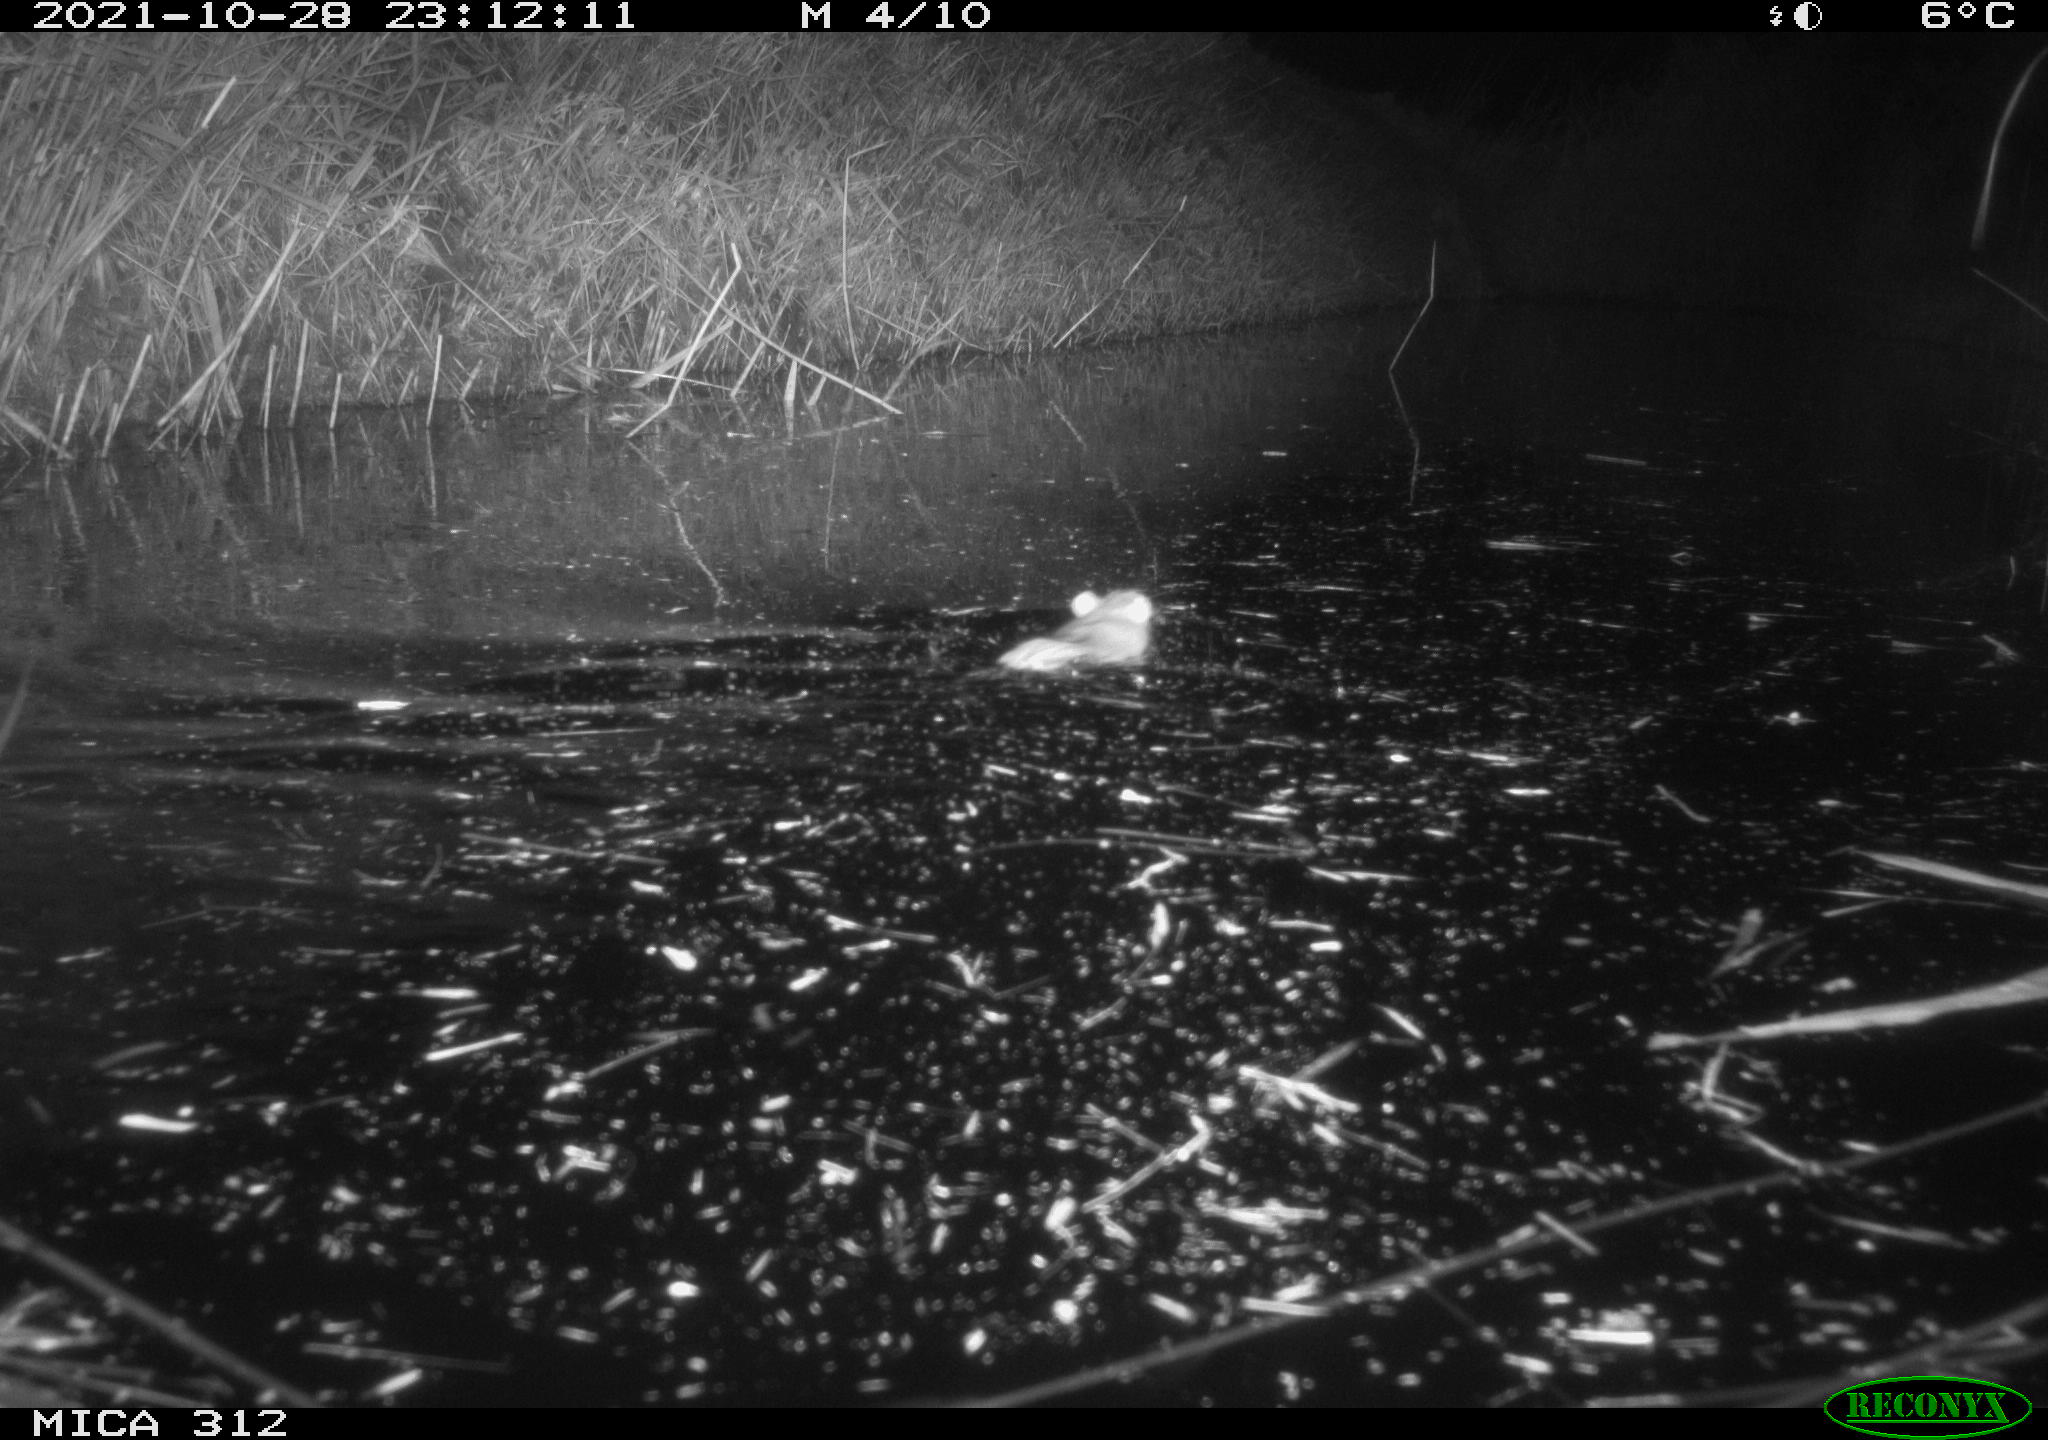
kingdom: Animalia
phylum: Chordata
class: Mammalia
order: Rodentia
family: Muridae
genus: Rattus
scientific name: Rattus norvegicus
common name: Brown rat
